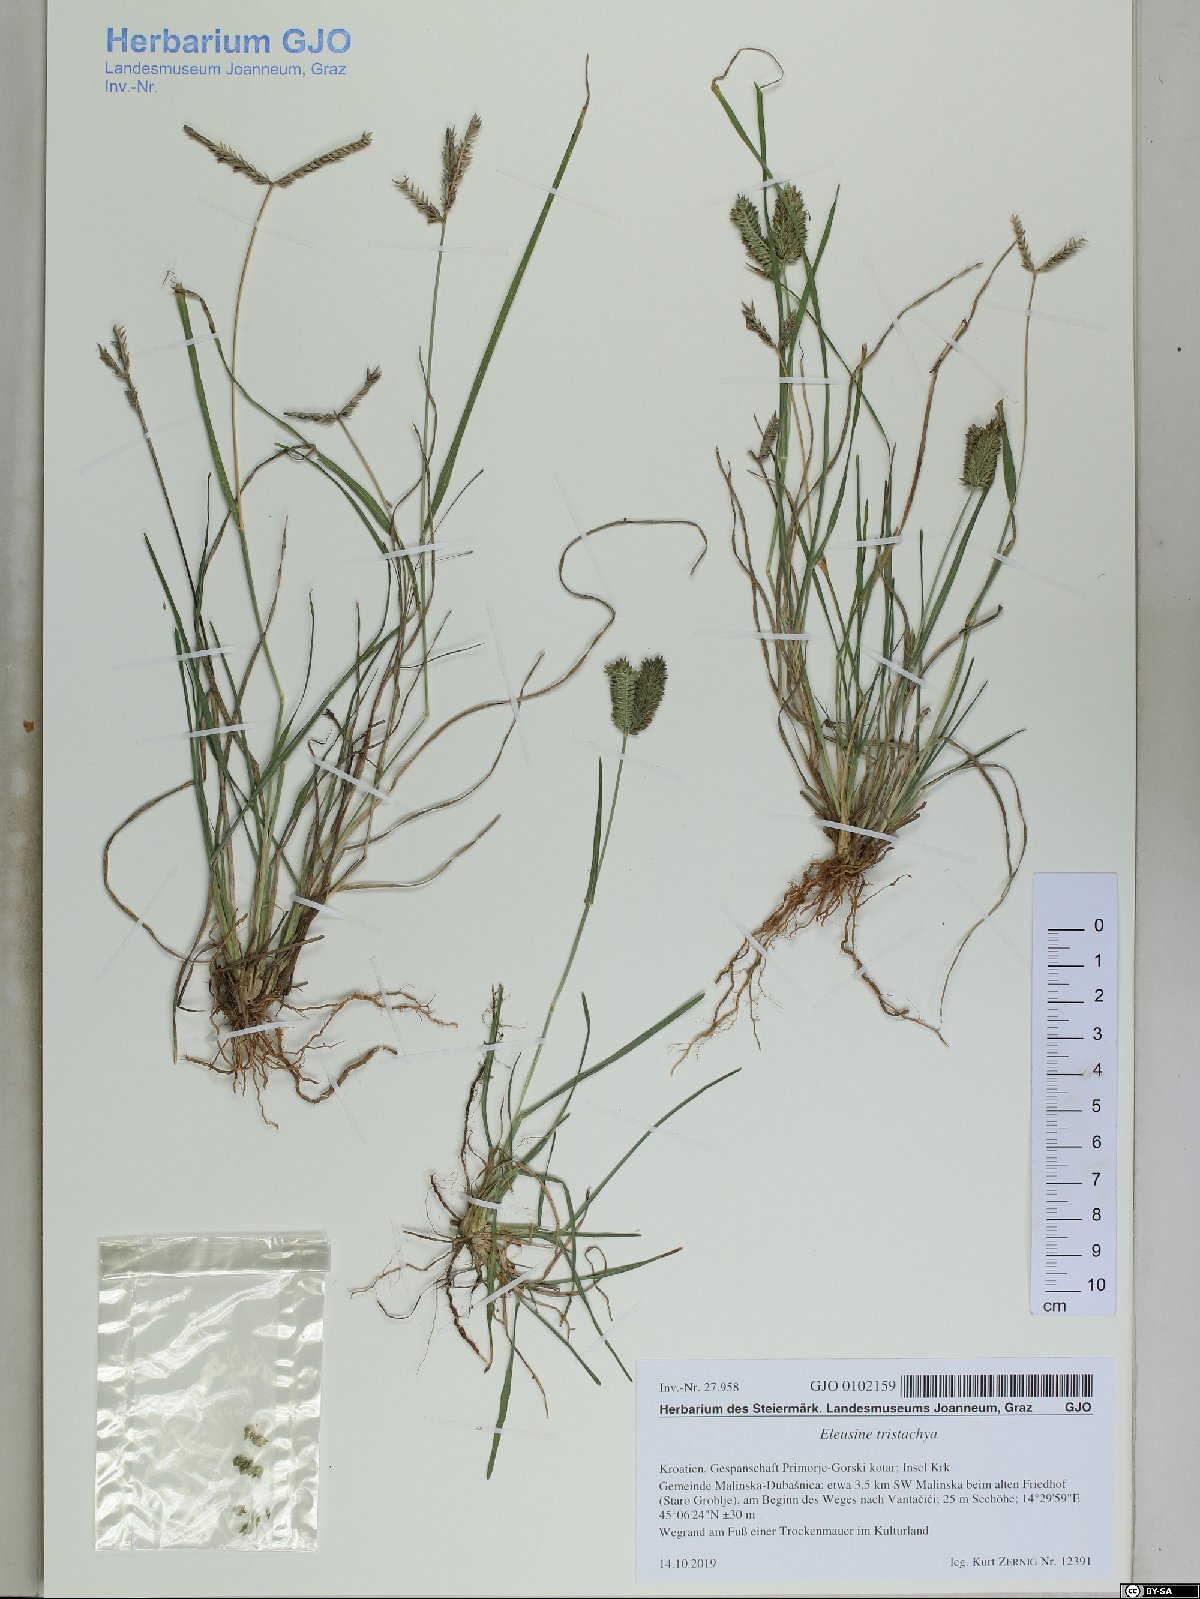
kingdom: Plantae
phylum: Tracheophyta
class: Liliopsida
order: Poales
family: Poaceae
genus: Eleusine
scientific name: Eleusine tristachya
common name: American yard-grass
